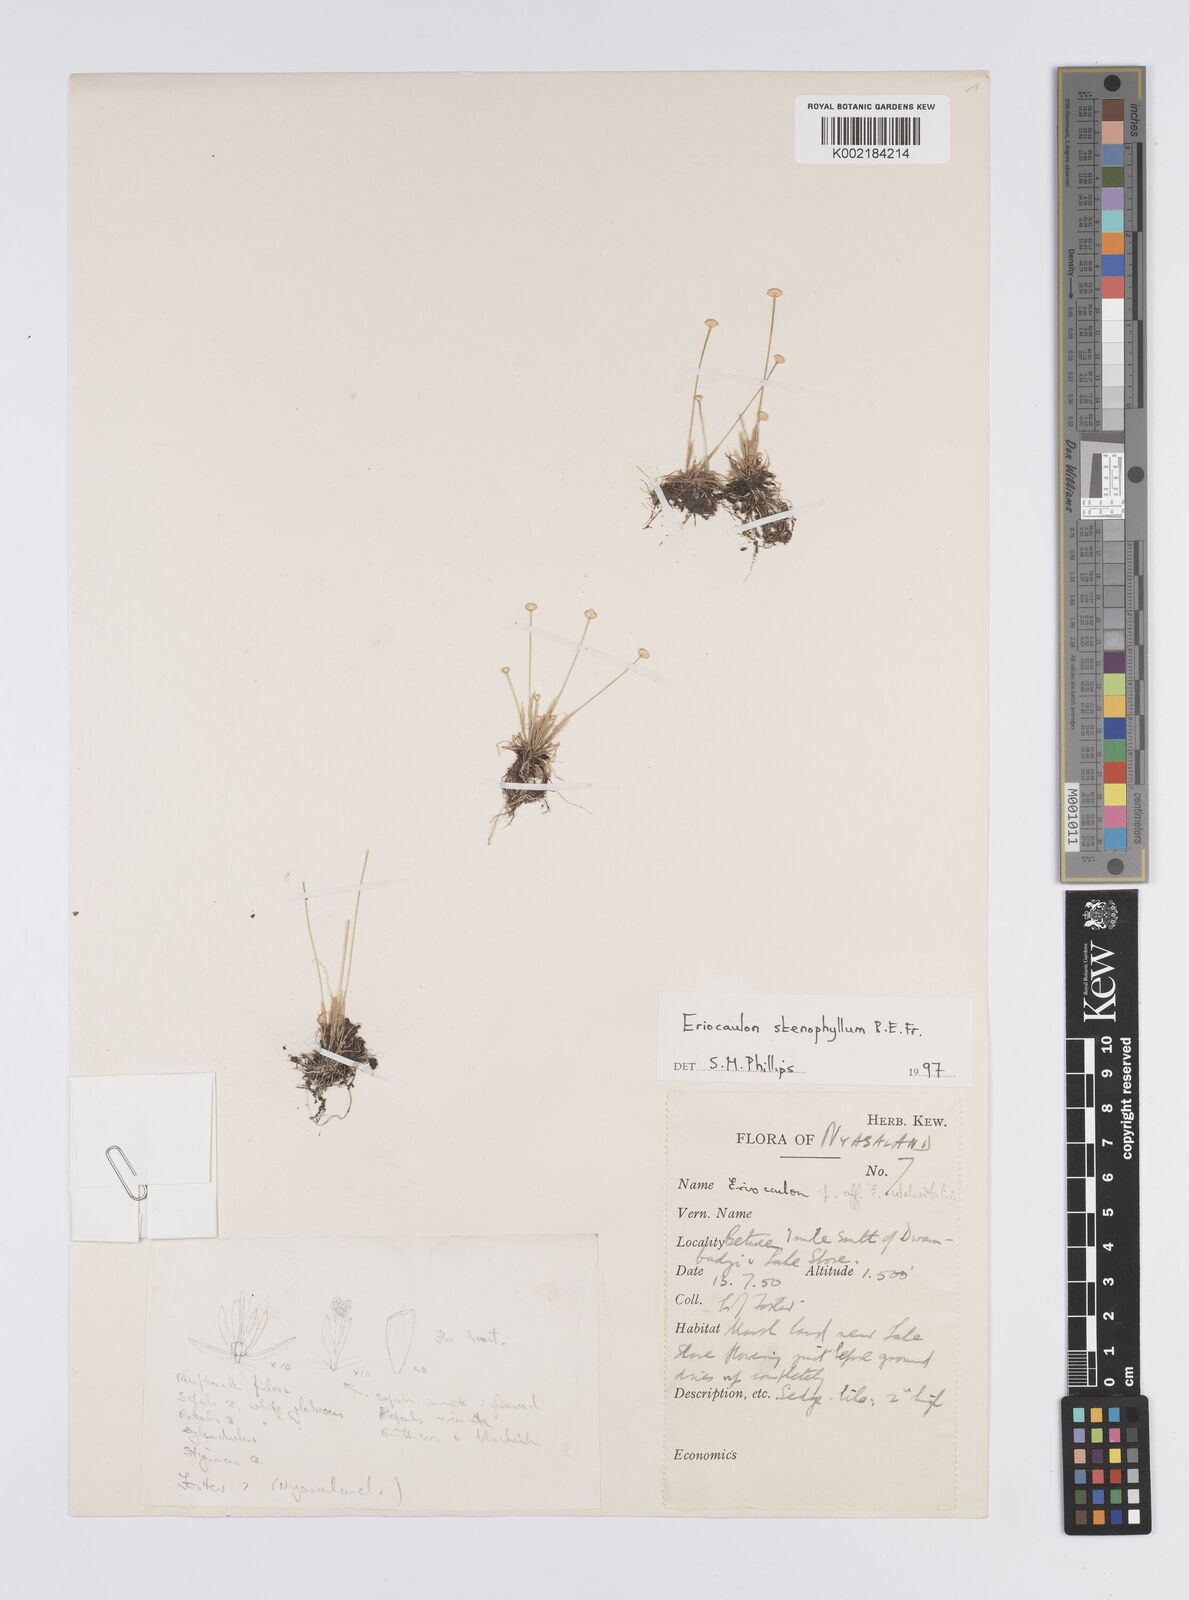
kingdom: Plantae
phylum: Tracheophyta
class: Liliopsida
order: Poales
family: Eriocaulaceae
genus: Eriocaulon
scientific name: Eriocaulon stenophyllum
